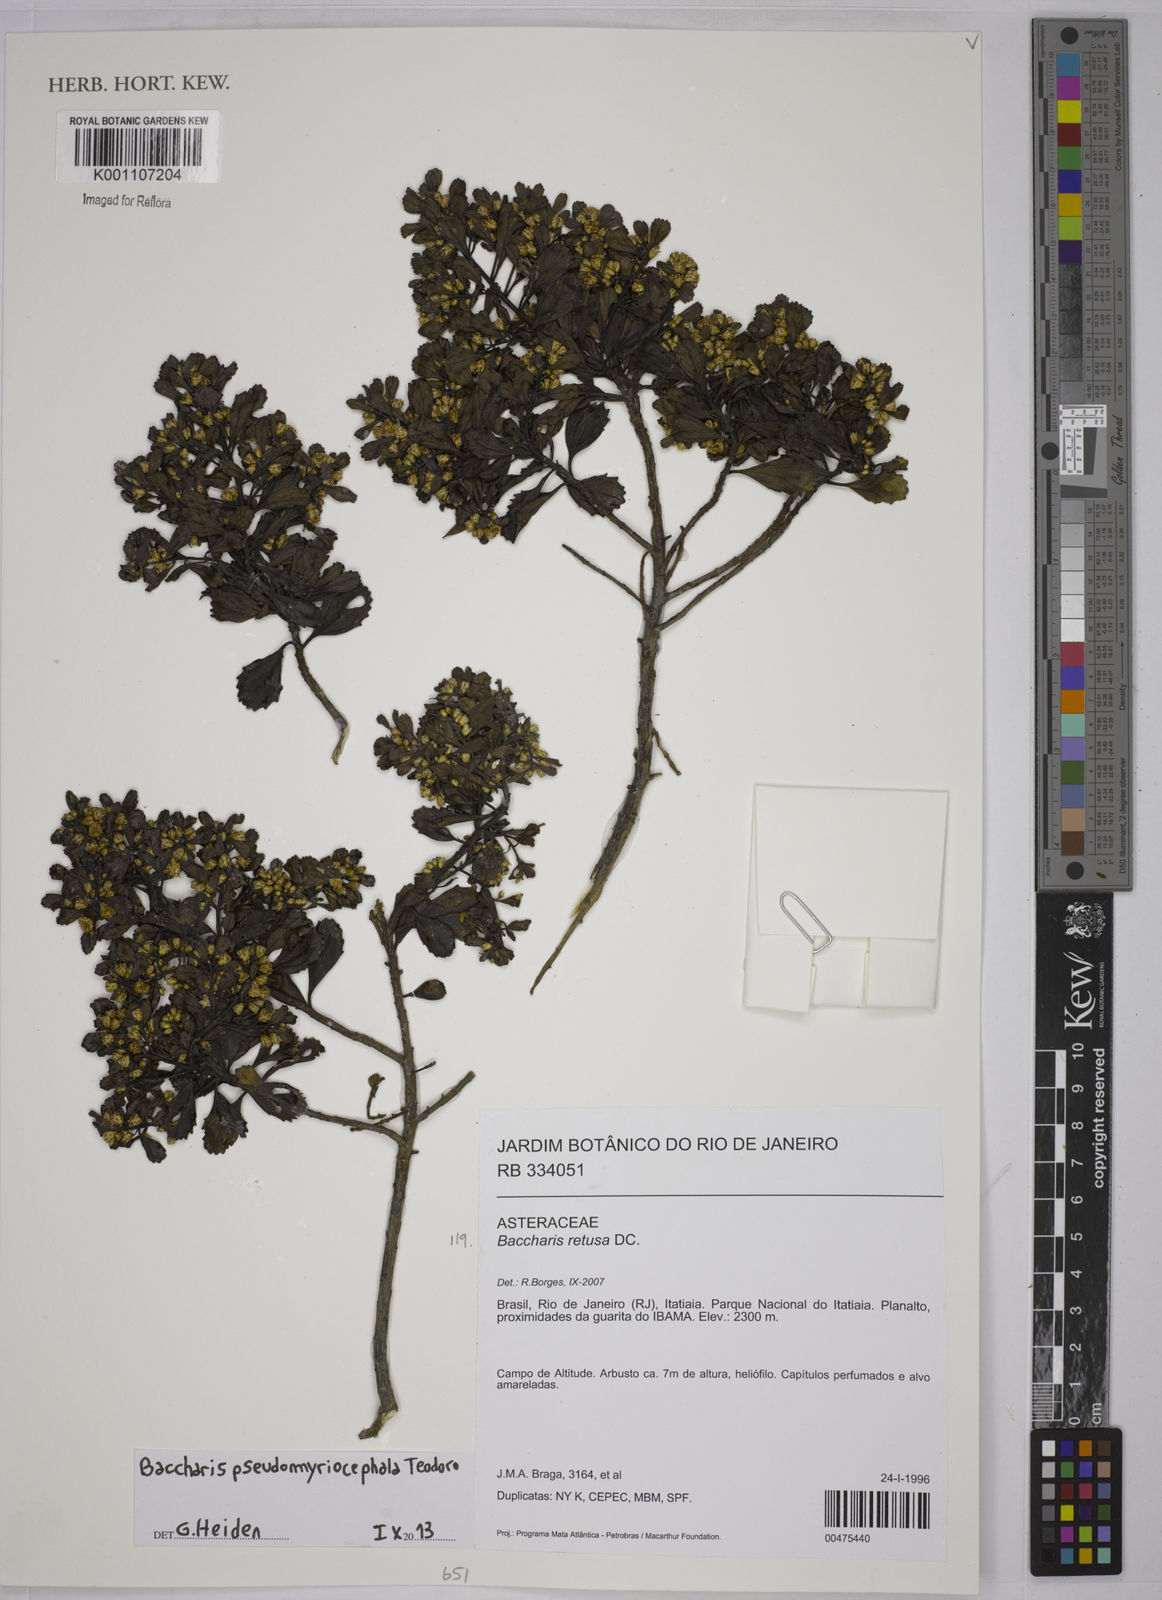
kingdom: Plantae
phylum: Tracheophyta
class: Magnoliopsida
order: Asterales
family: Asteraceae
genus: Baccharis
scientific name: Baccharis pseudomyriocephala
